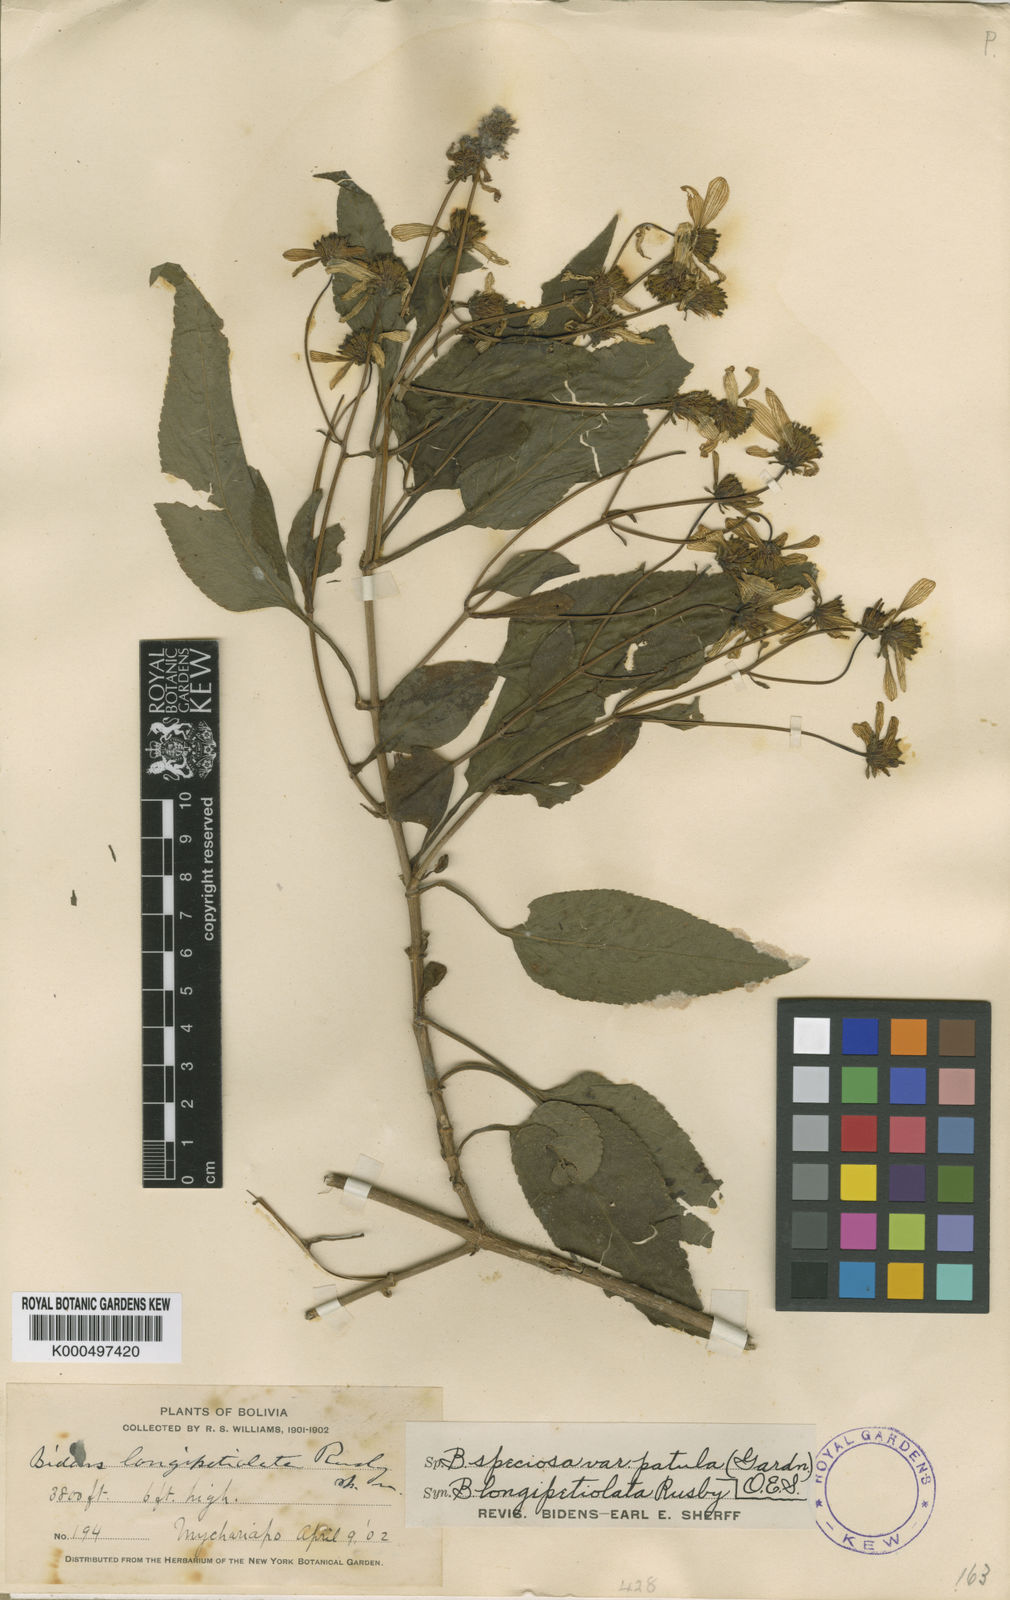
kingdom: Plantae
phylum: Tracheophyta
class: Magnoliopsida
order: Asterales
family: Asteraceae
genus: Bidens
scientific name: Bidens segetum
